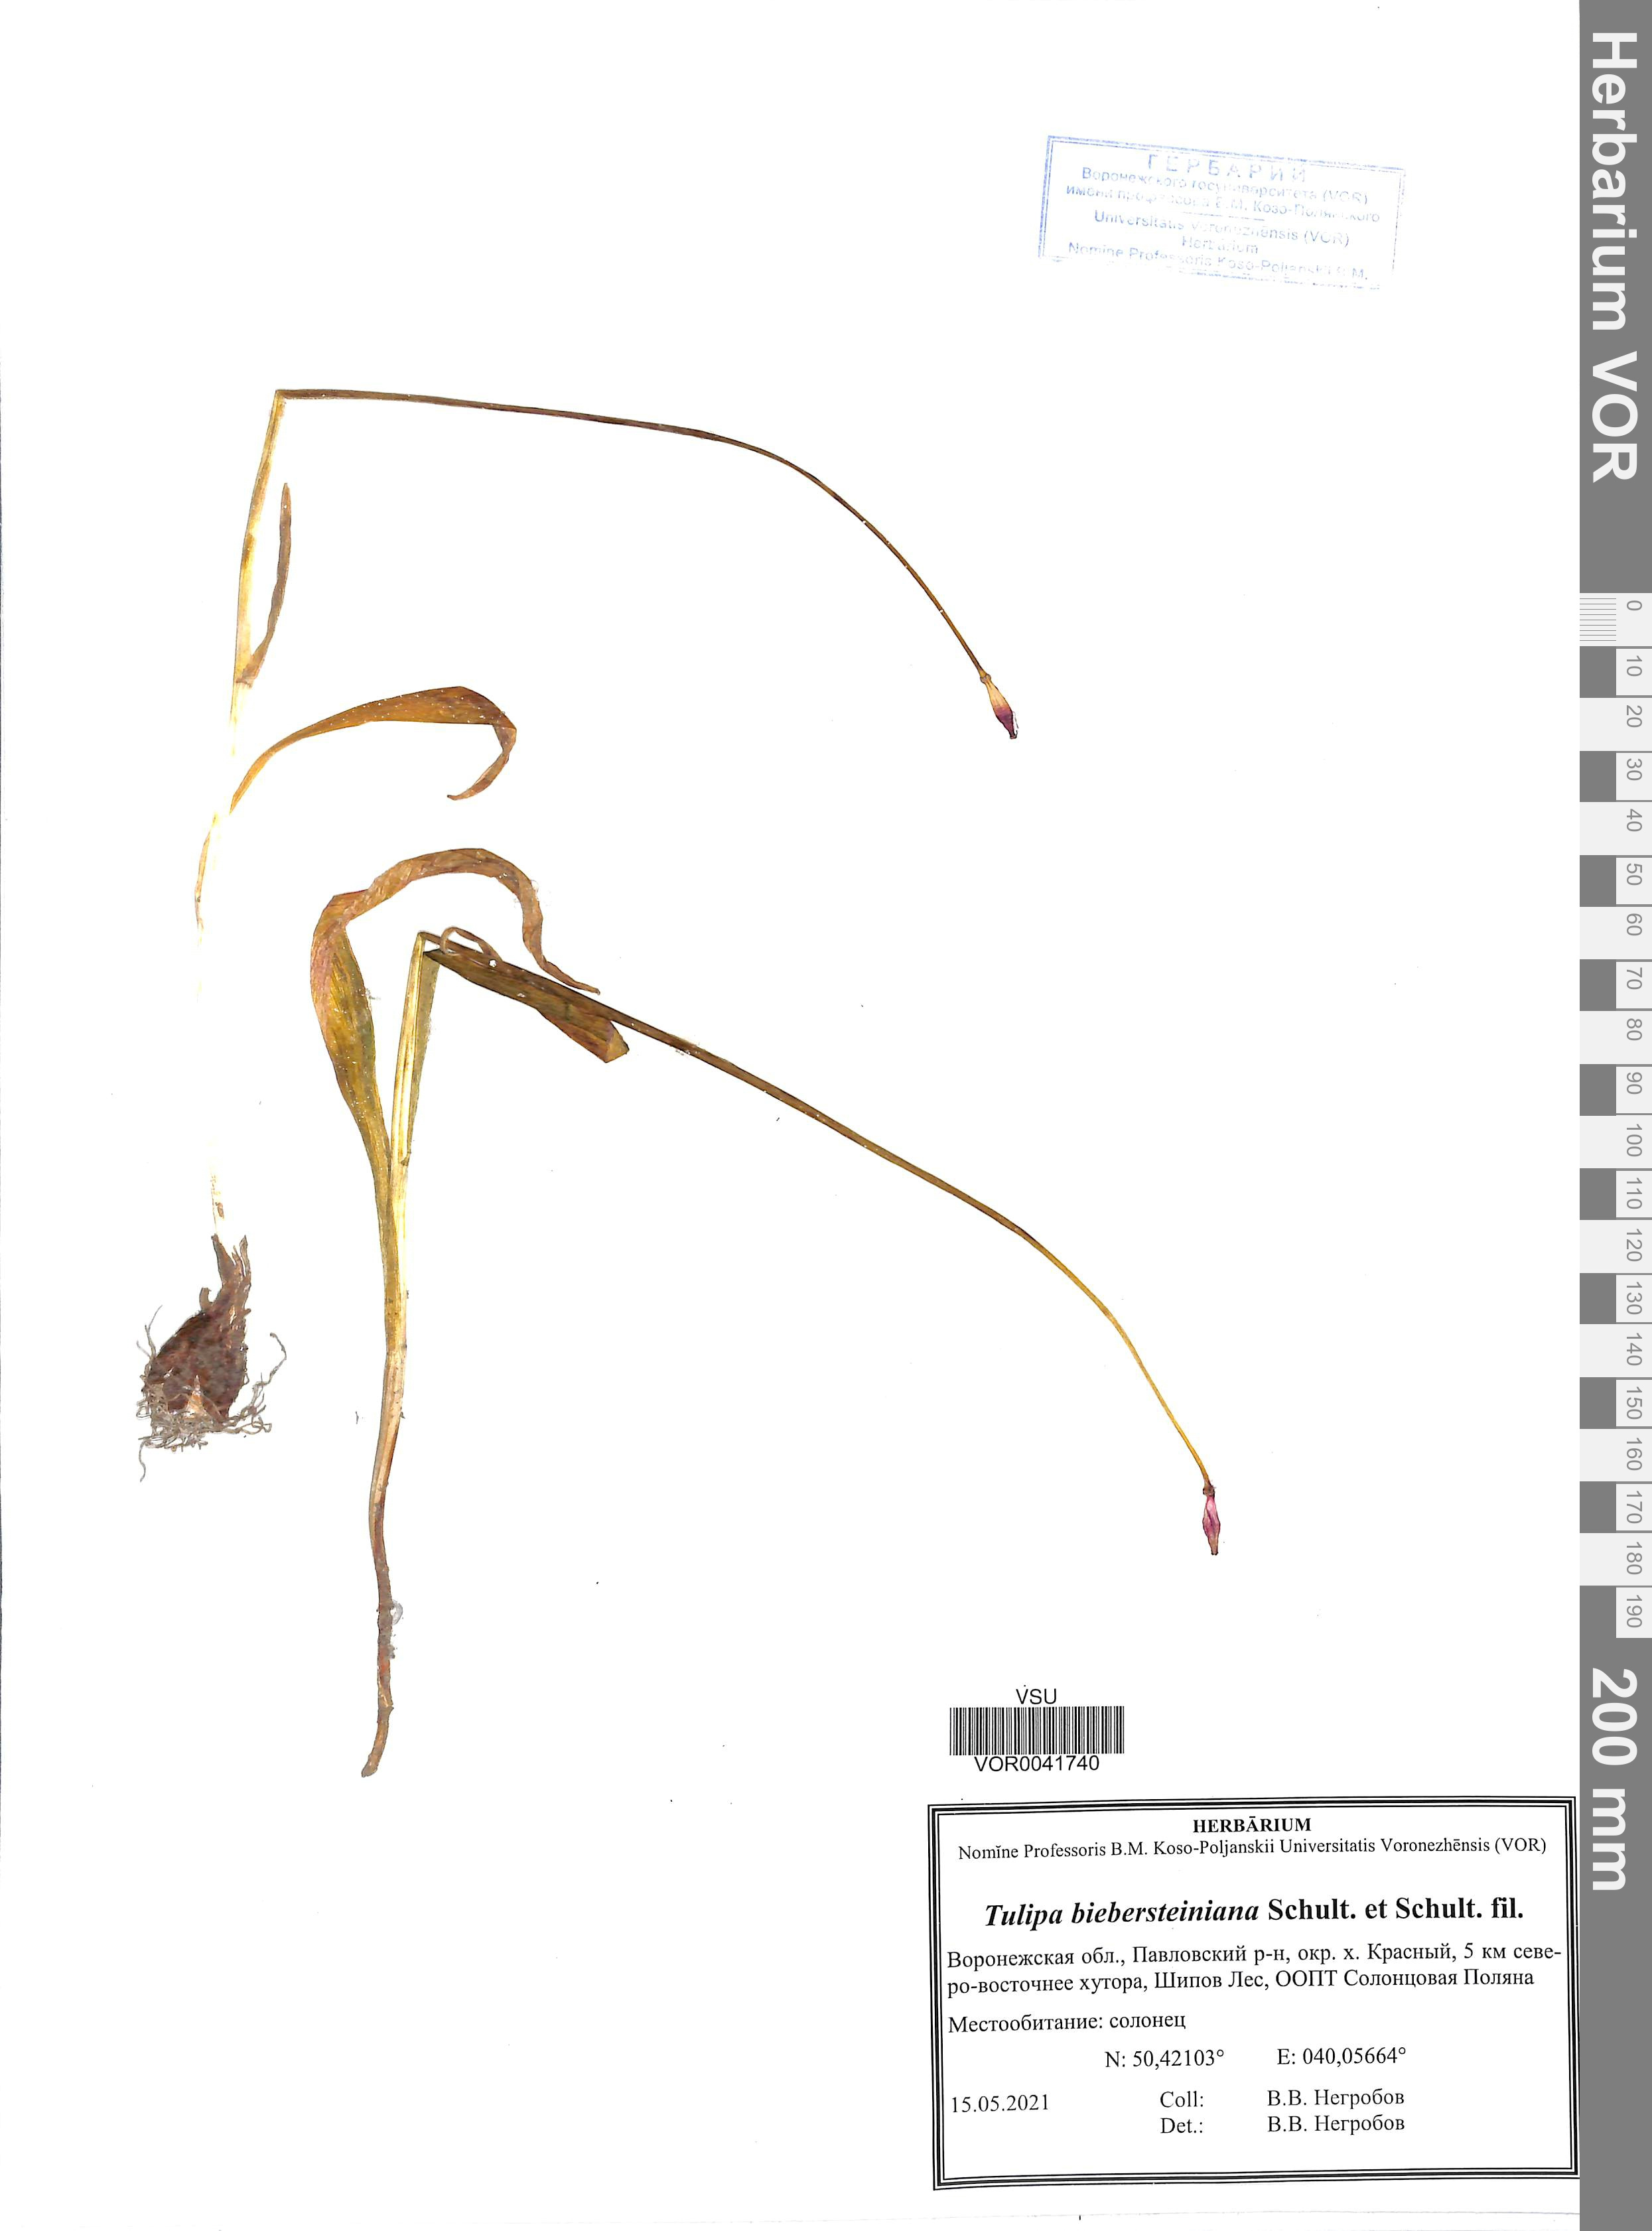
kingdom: Plantae
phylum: Tracheophyta
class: Liliopsida
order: Liliales
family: Liliaceae
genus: Tulipa
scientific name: Tulipa sylvestris
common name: Wild tulip
